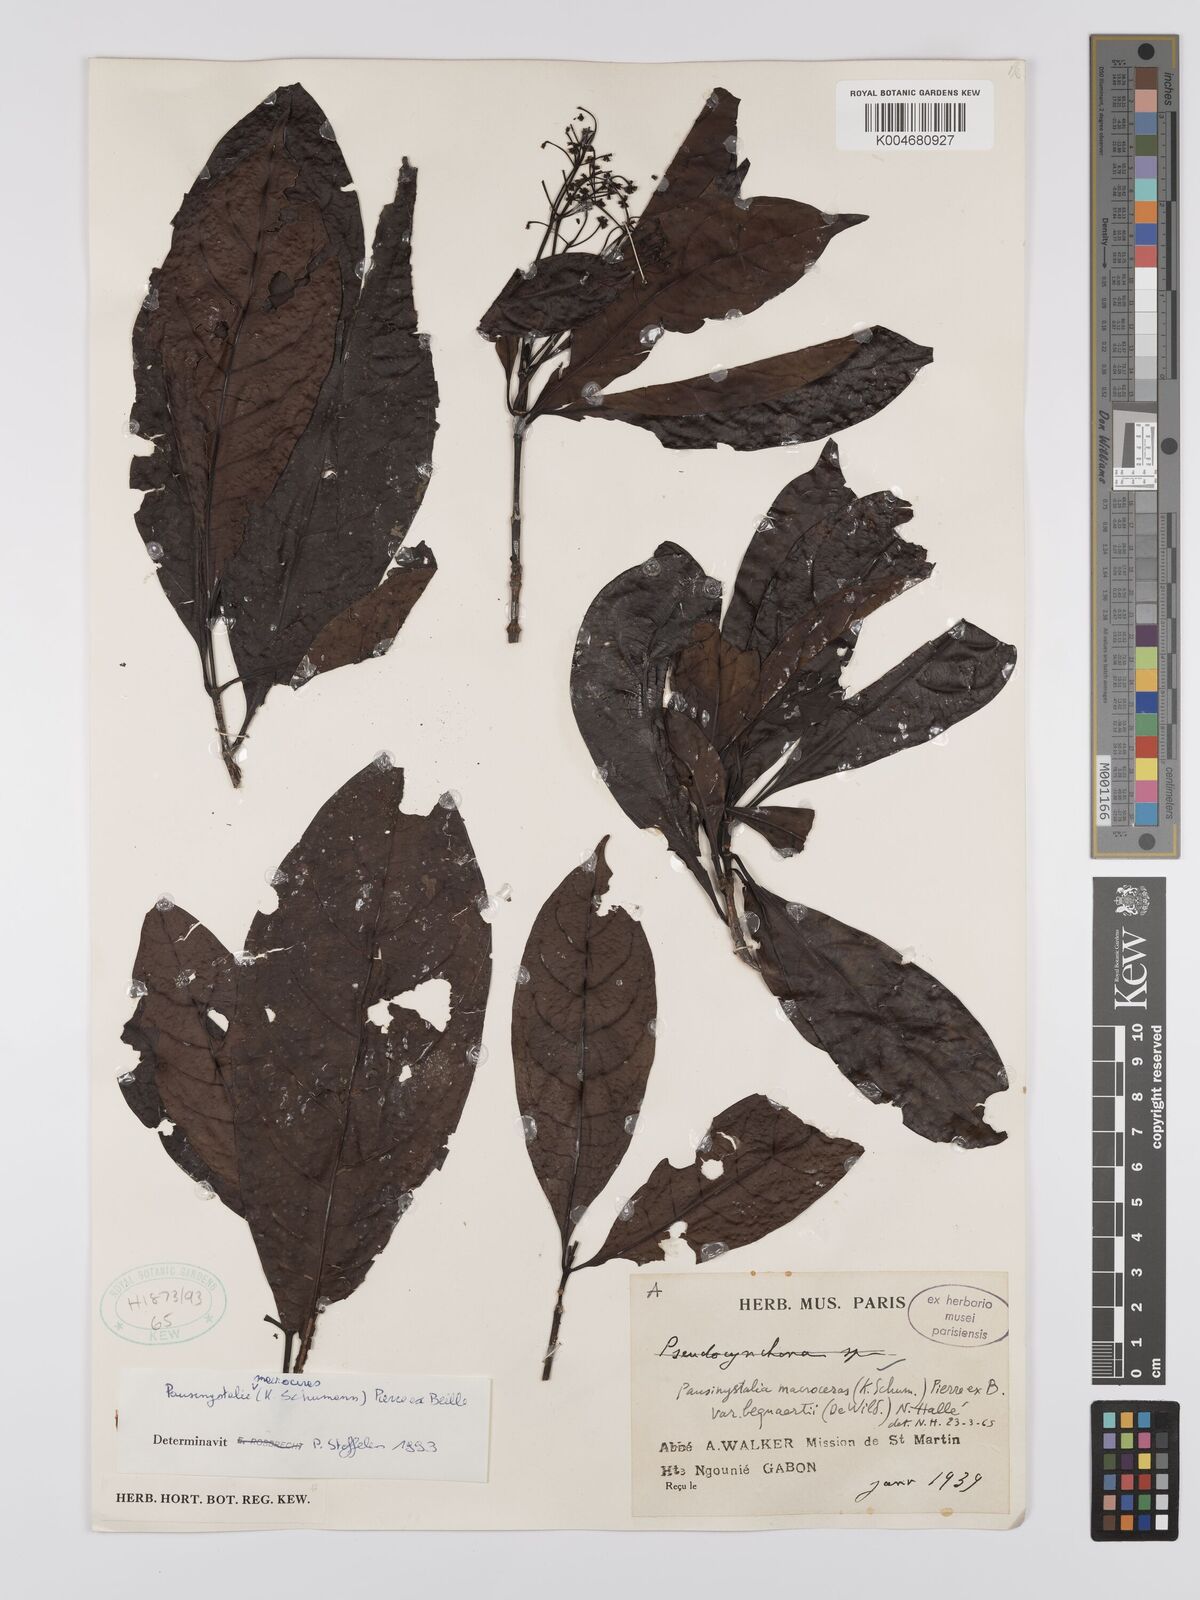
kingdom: Plantae
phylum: Tracheophyta
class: Magnoliopsida
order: Gentianales
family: Rubiaceae
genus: Corynanthe
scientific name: Corynanthe macroceras
